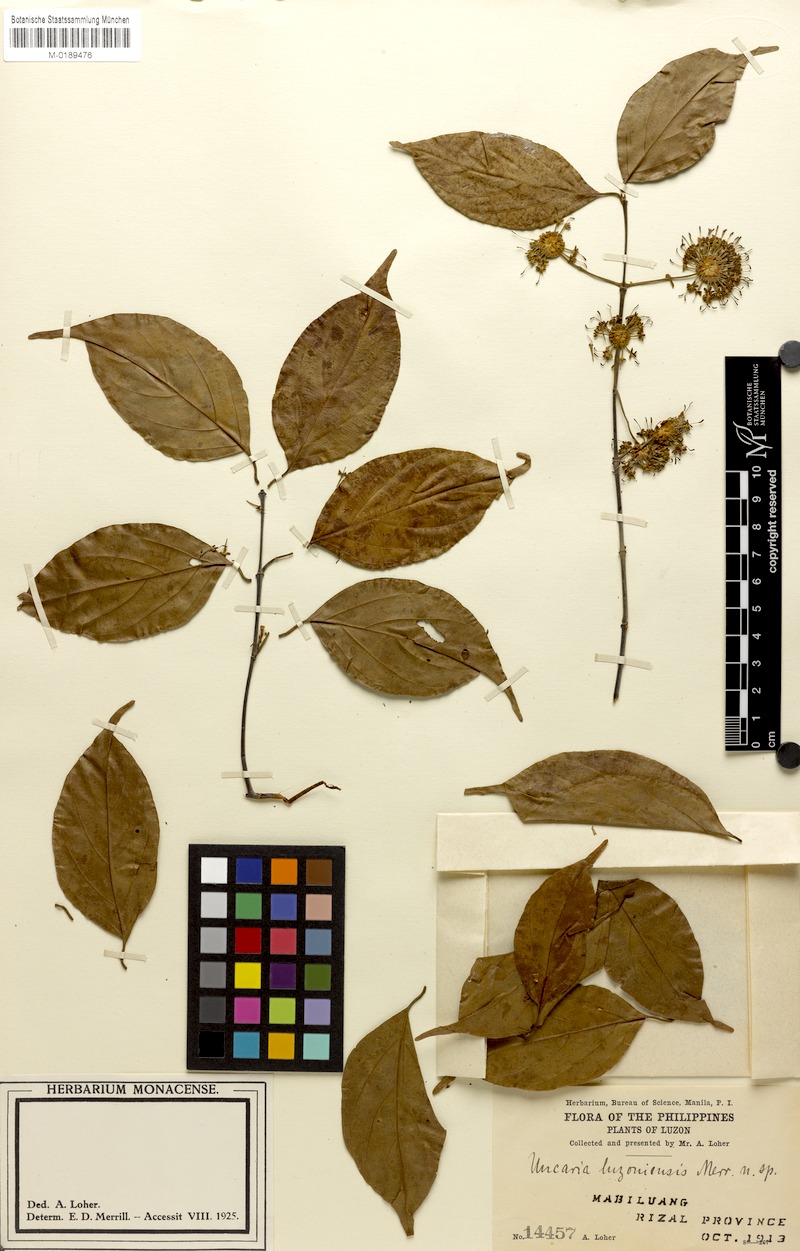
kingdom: Plantae
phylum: Tracheophyta
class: Magnoliopsida
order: Gentianales
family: Rubiaceae
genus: Uncaria
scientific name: Uncaria callophylla
